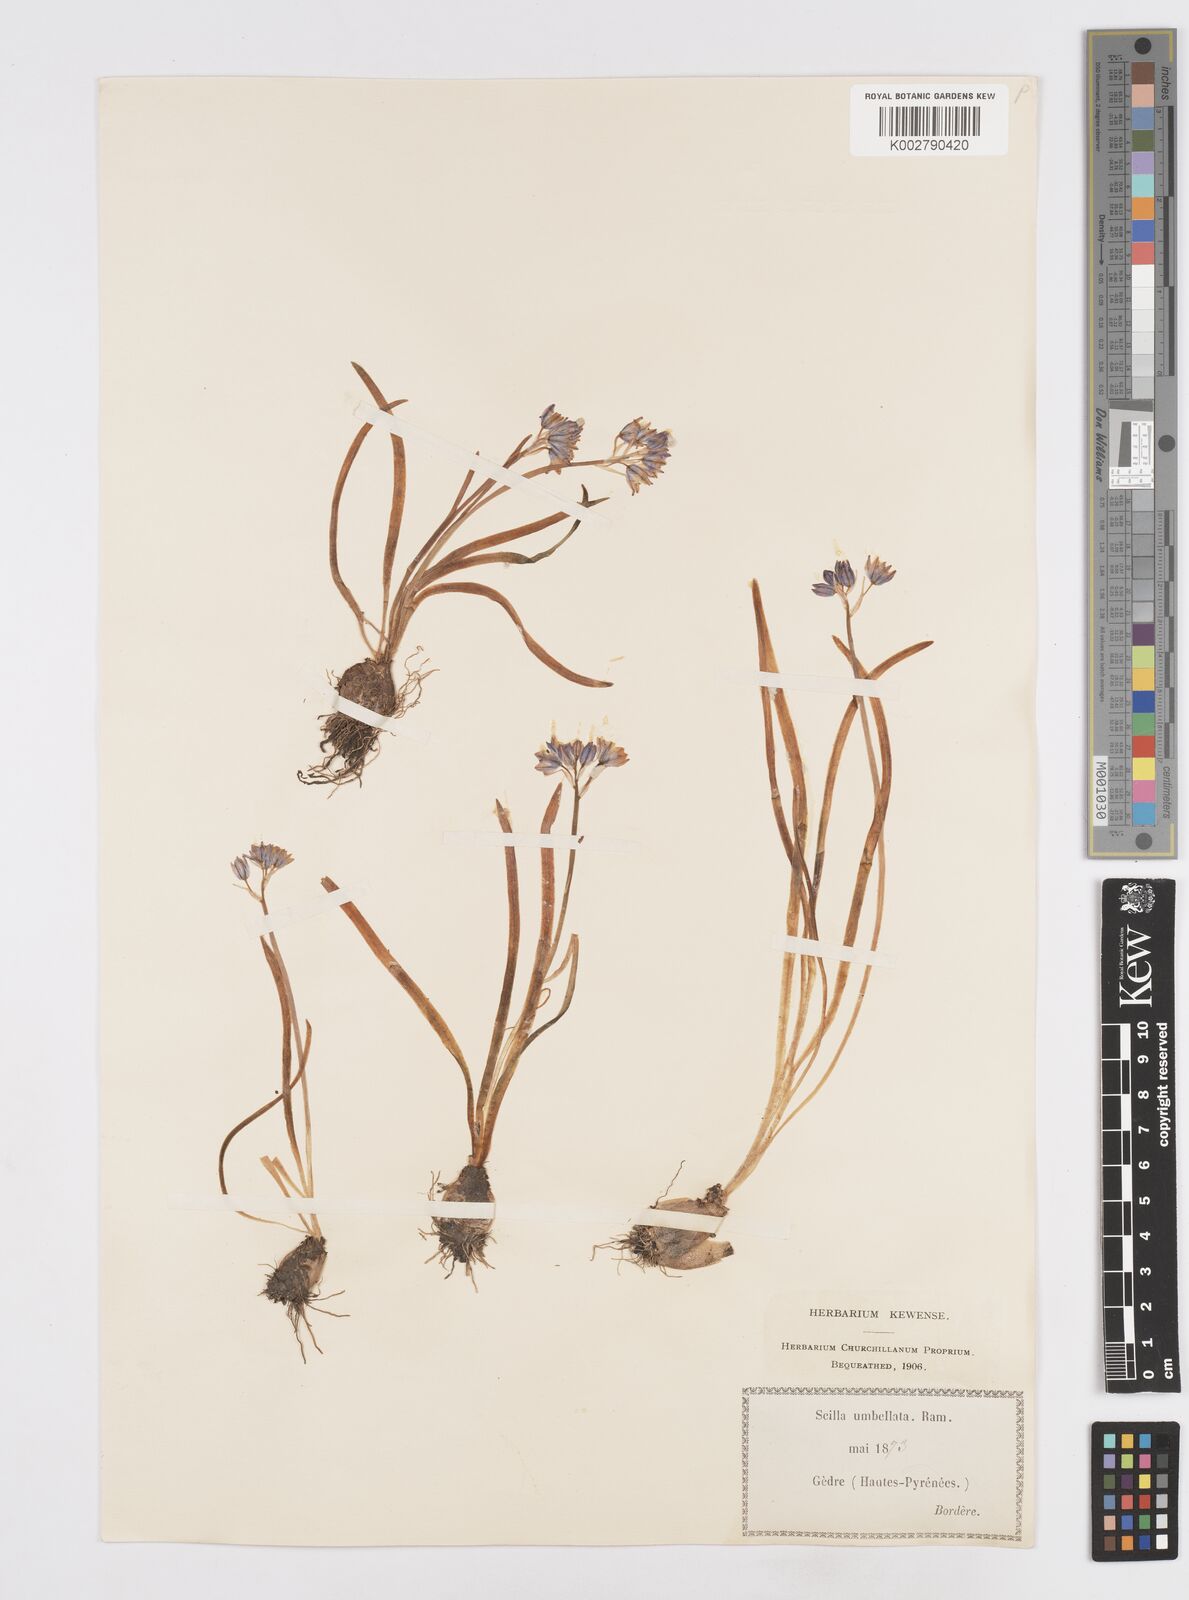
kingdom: Plantae
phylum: Tracheophyta
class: Liliopsida
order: Asparagales
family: Asparagaceae
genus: Scilla
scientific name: Scilla verna
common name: Spring squill
